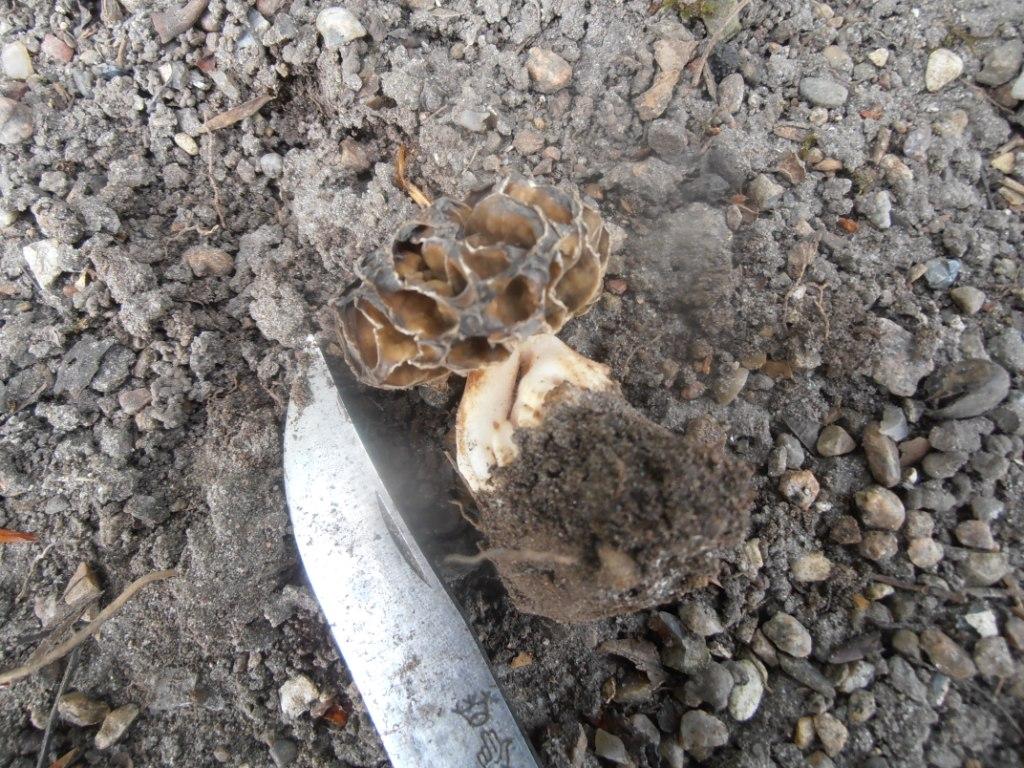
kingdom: Fungi
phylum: Ascomycota
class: Pezizomycetes
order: Pezizales
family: Morchellaceae
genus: Morchella
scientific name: Morchella esculenta
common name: spiselig morkel
